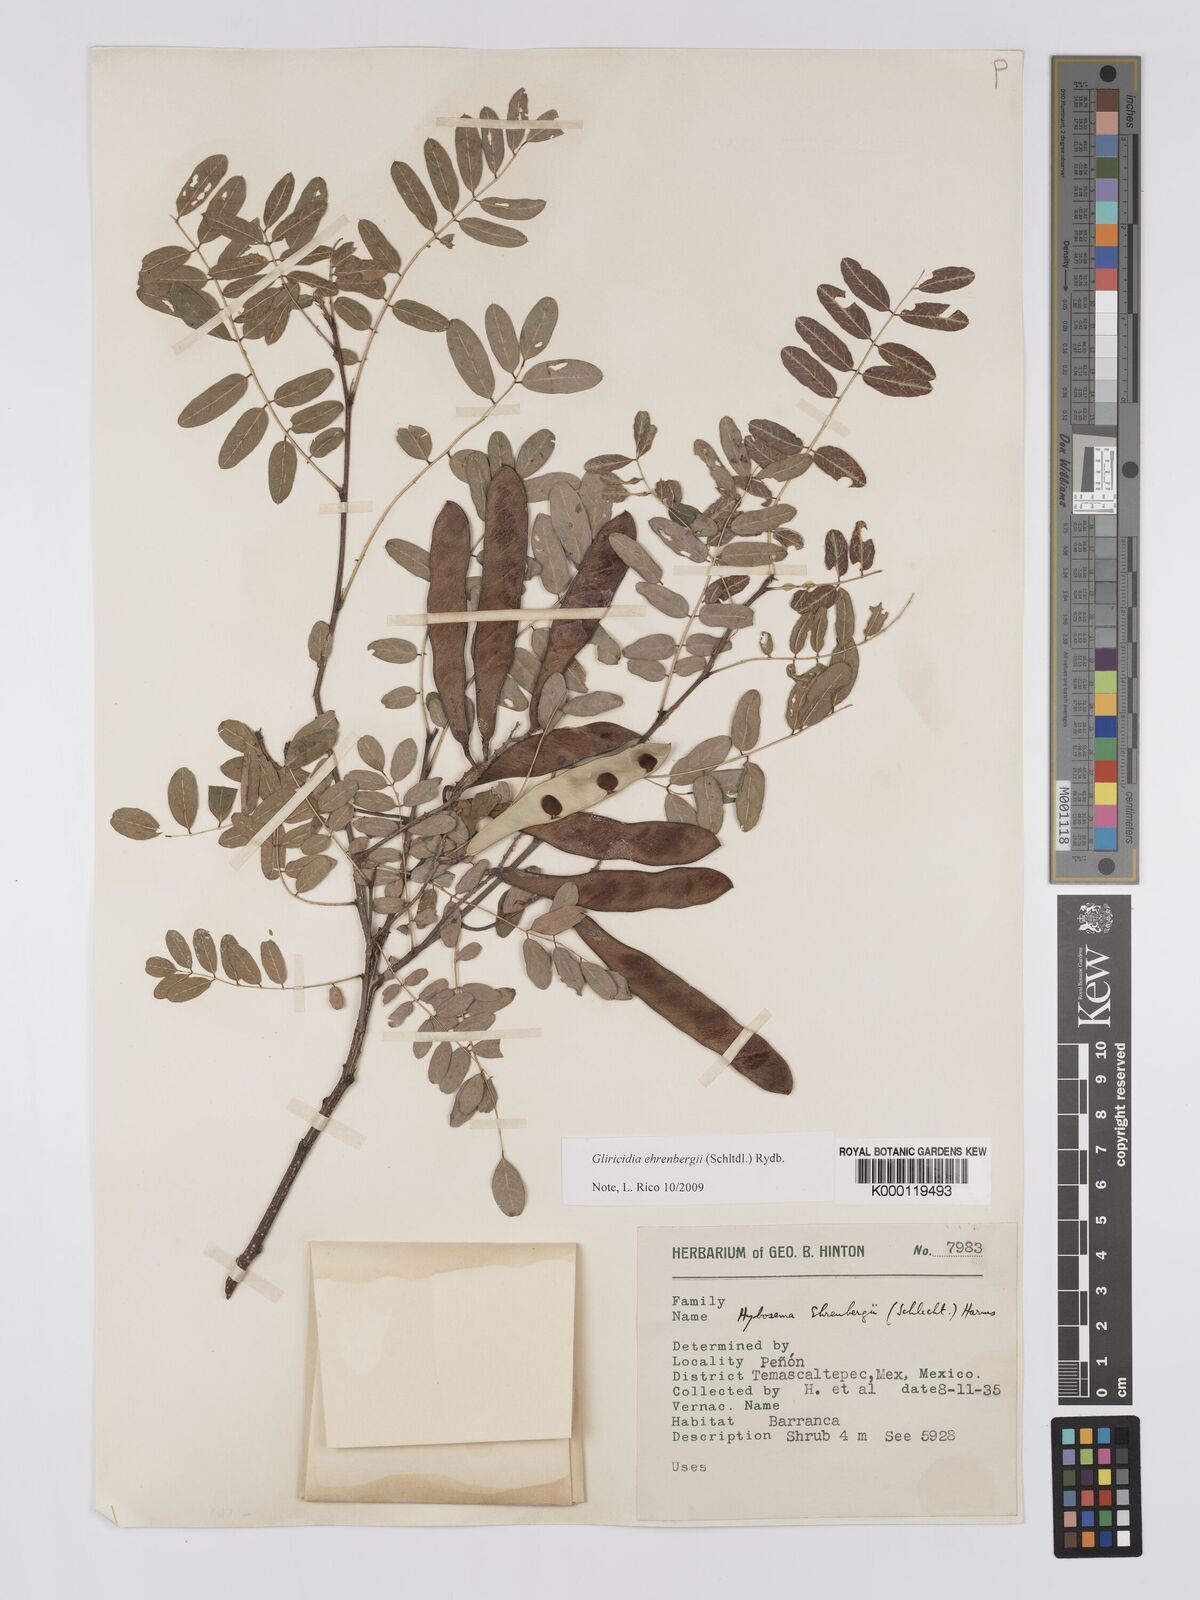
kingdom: Plantae
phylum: Tracheophyta
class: Magnoliopsida
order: Fabales
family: Fabaceae
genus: Gliricidia
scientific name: Gliricidia ehrenbergii
